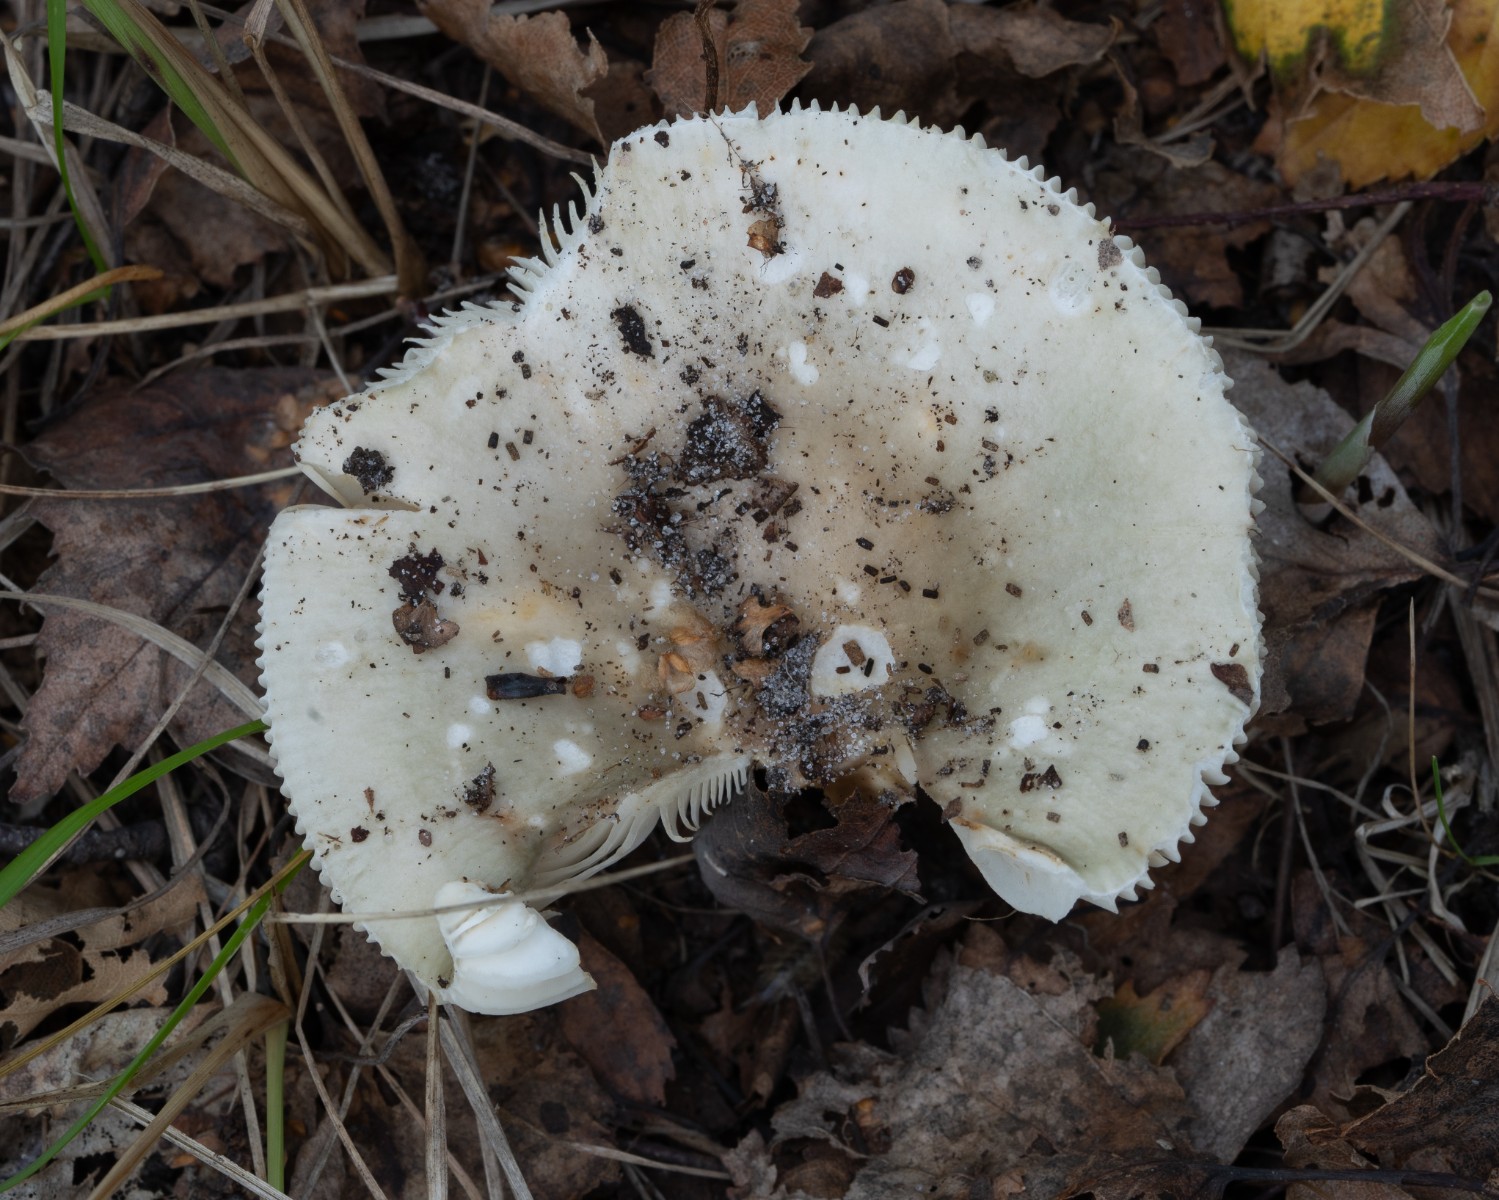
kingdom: Fungi
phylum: Basidiomycota
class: Agaricomycetes
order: Russulales
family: Russulaceae
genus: Russula
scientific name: Russula
